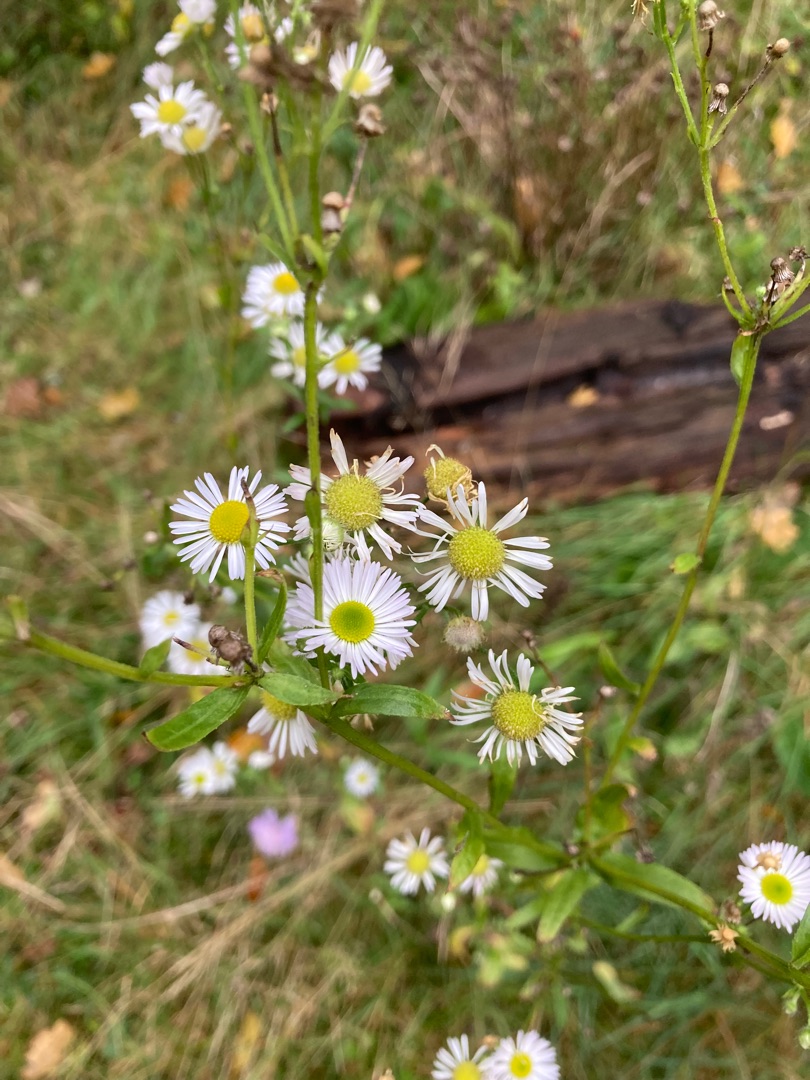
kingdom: Plantae
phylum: Tracheophyta
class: Magnoliopsida
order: Asterales
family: Asteraceae
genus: Erigeron
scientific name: Erigeron annuus
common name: Smalstråle
